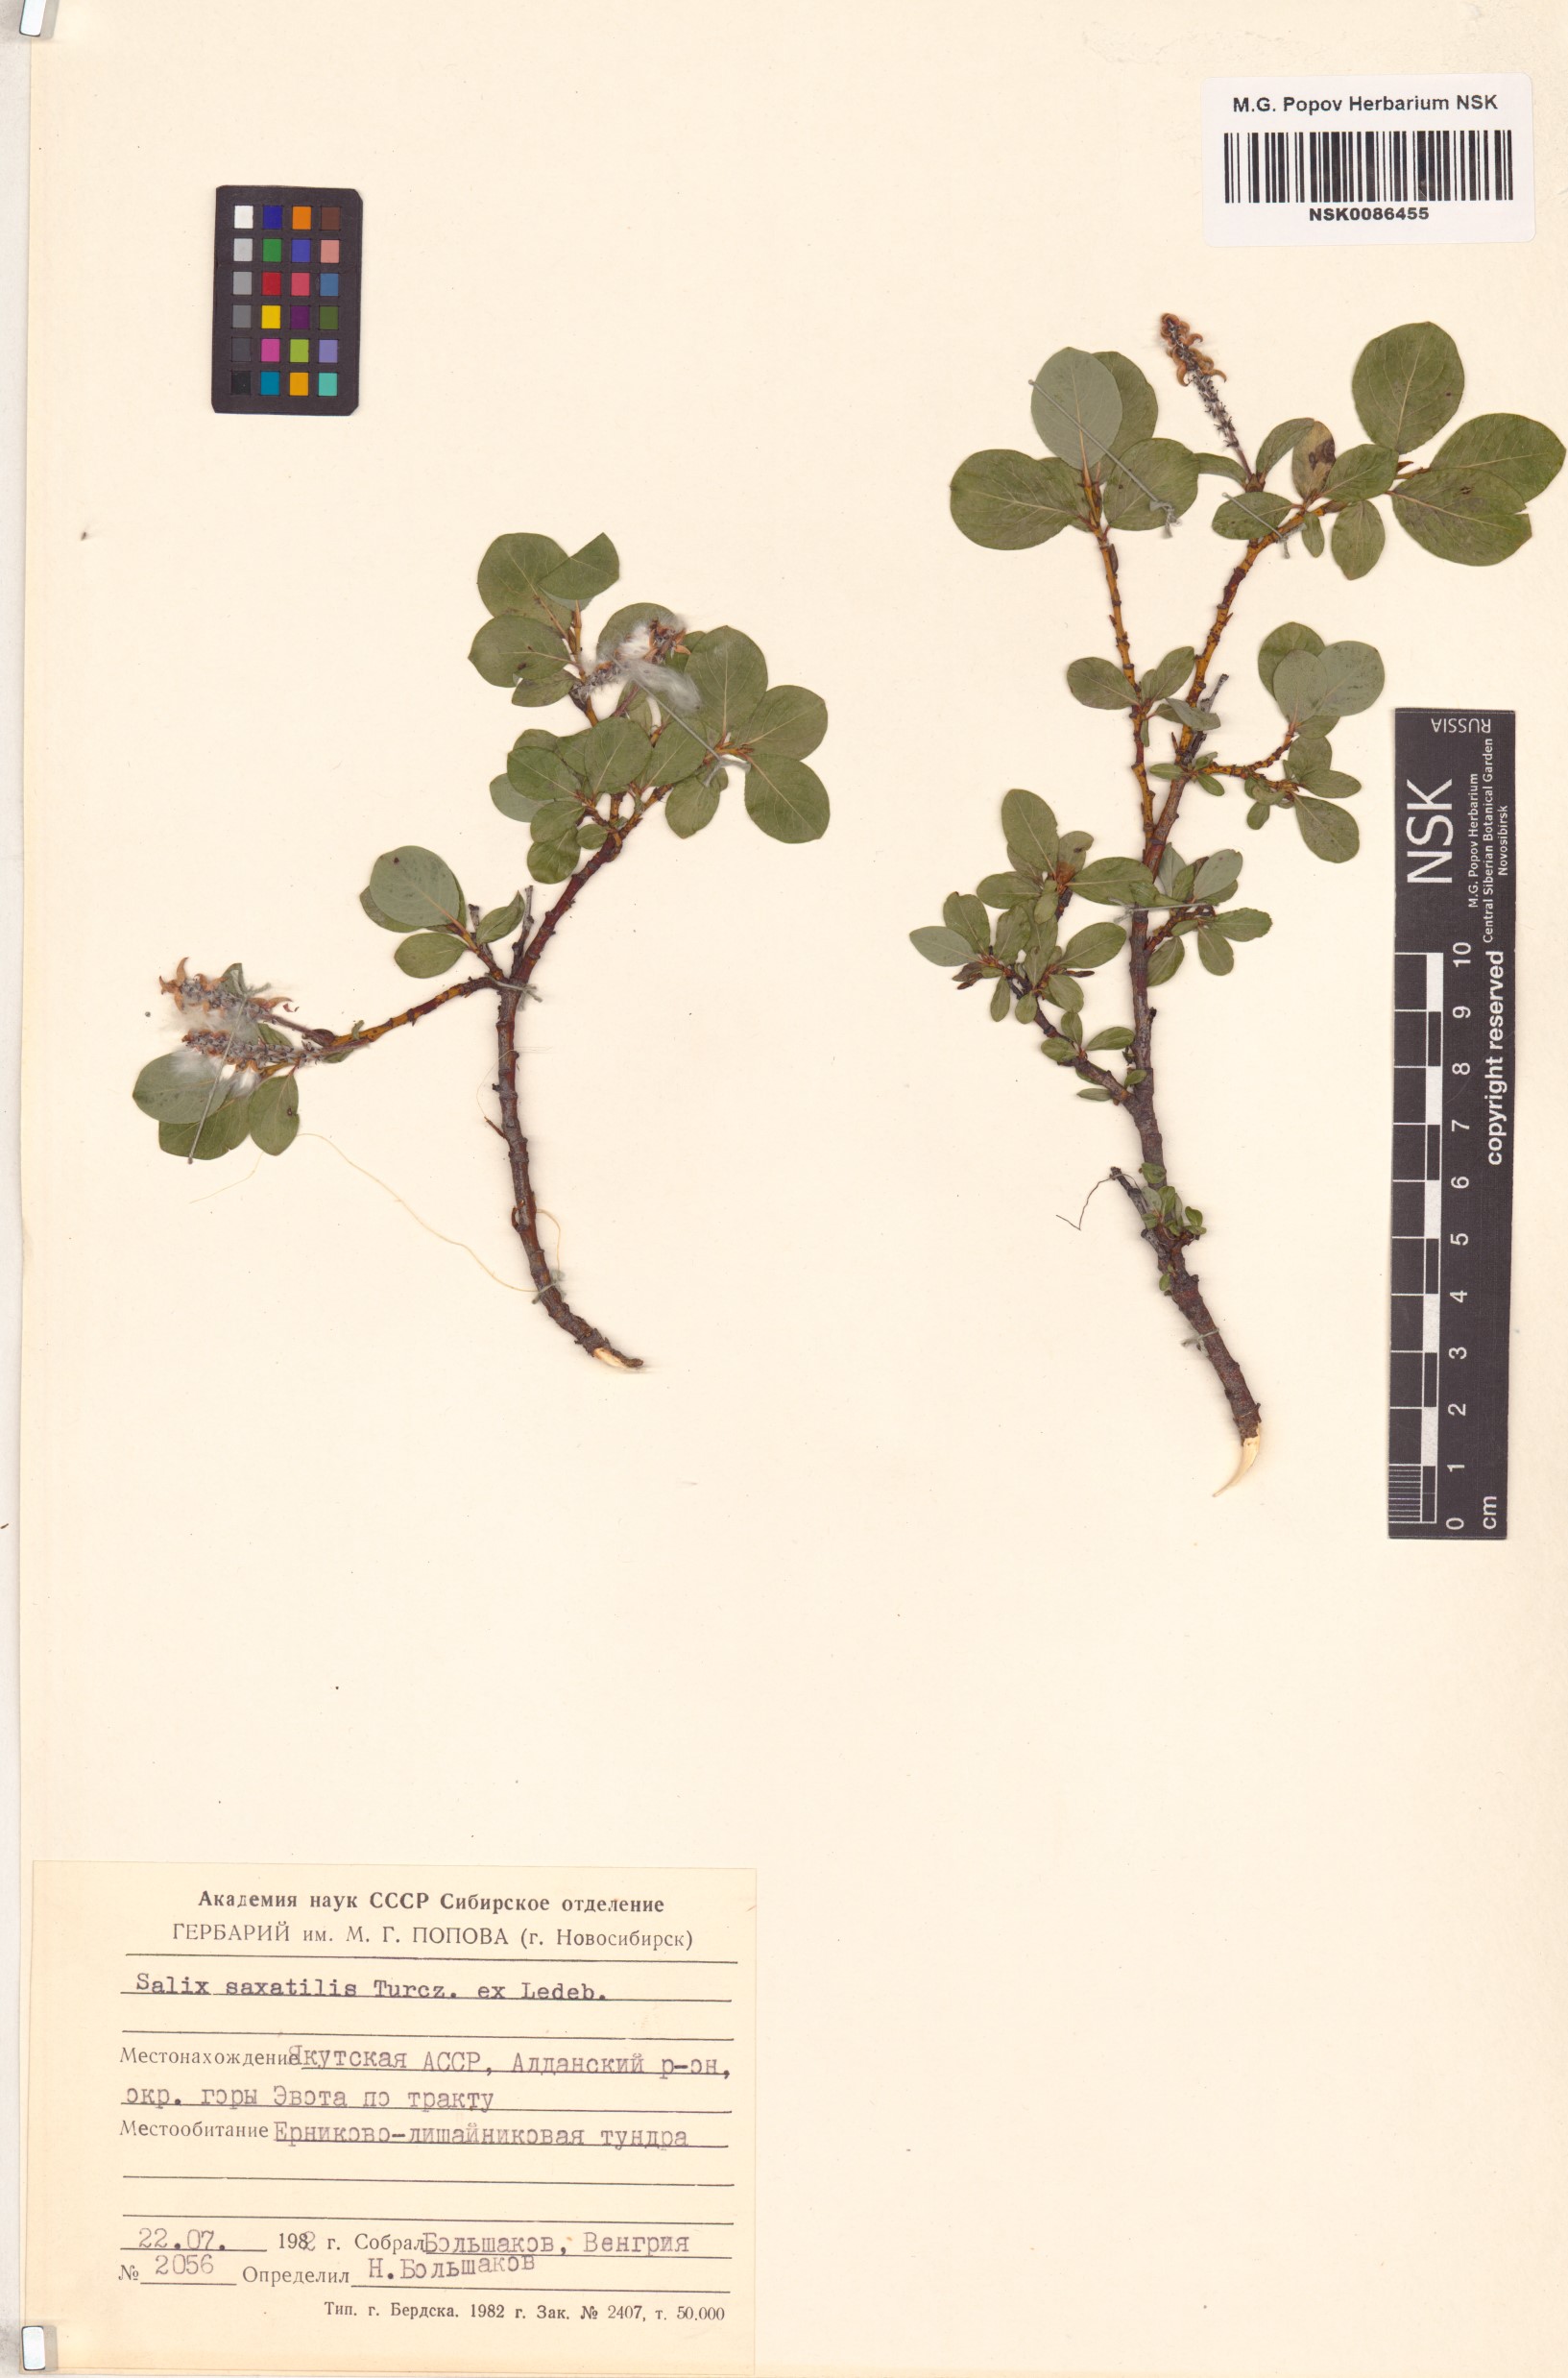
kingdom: Plantae
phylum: Tracheophyta
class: Magnoliopsida
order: Malpighiales
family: Salicaceae
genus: Salix
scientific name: Salix saxatilis
